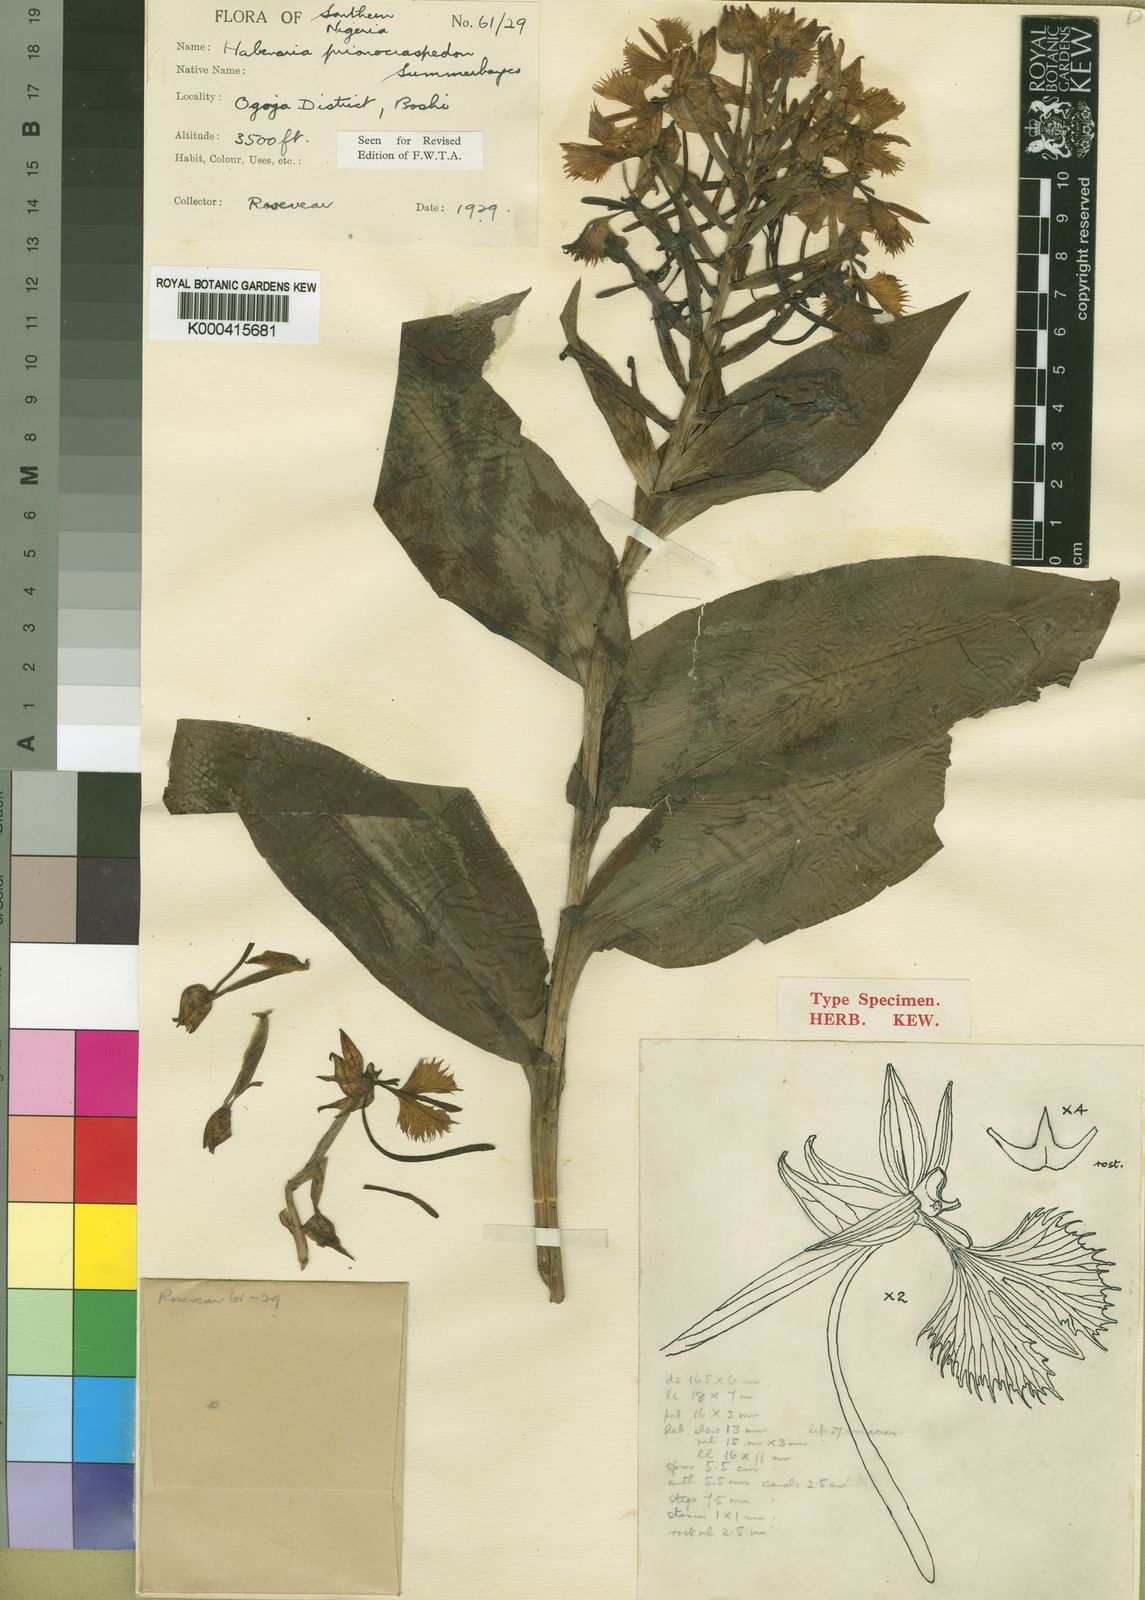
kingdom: Plantae
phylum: Tracheophyta
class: Liliopsida
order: Asparagales
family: Orchidaceae
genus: Habenaria
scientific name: Habenaria prionocraspedon
